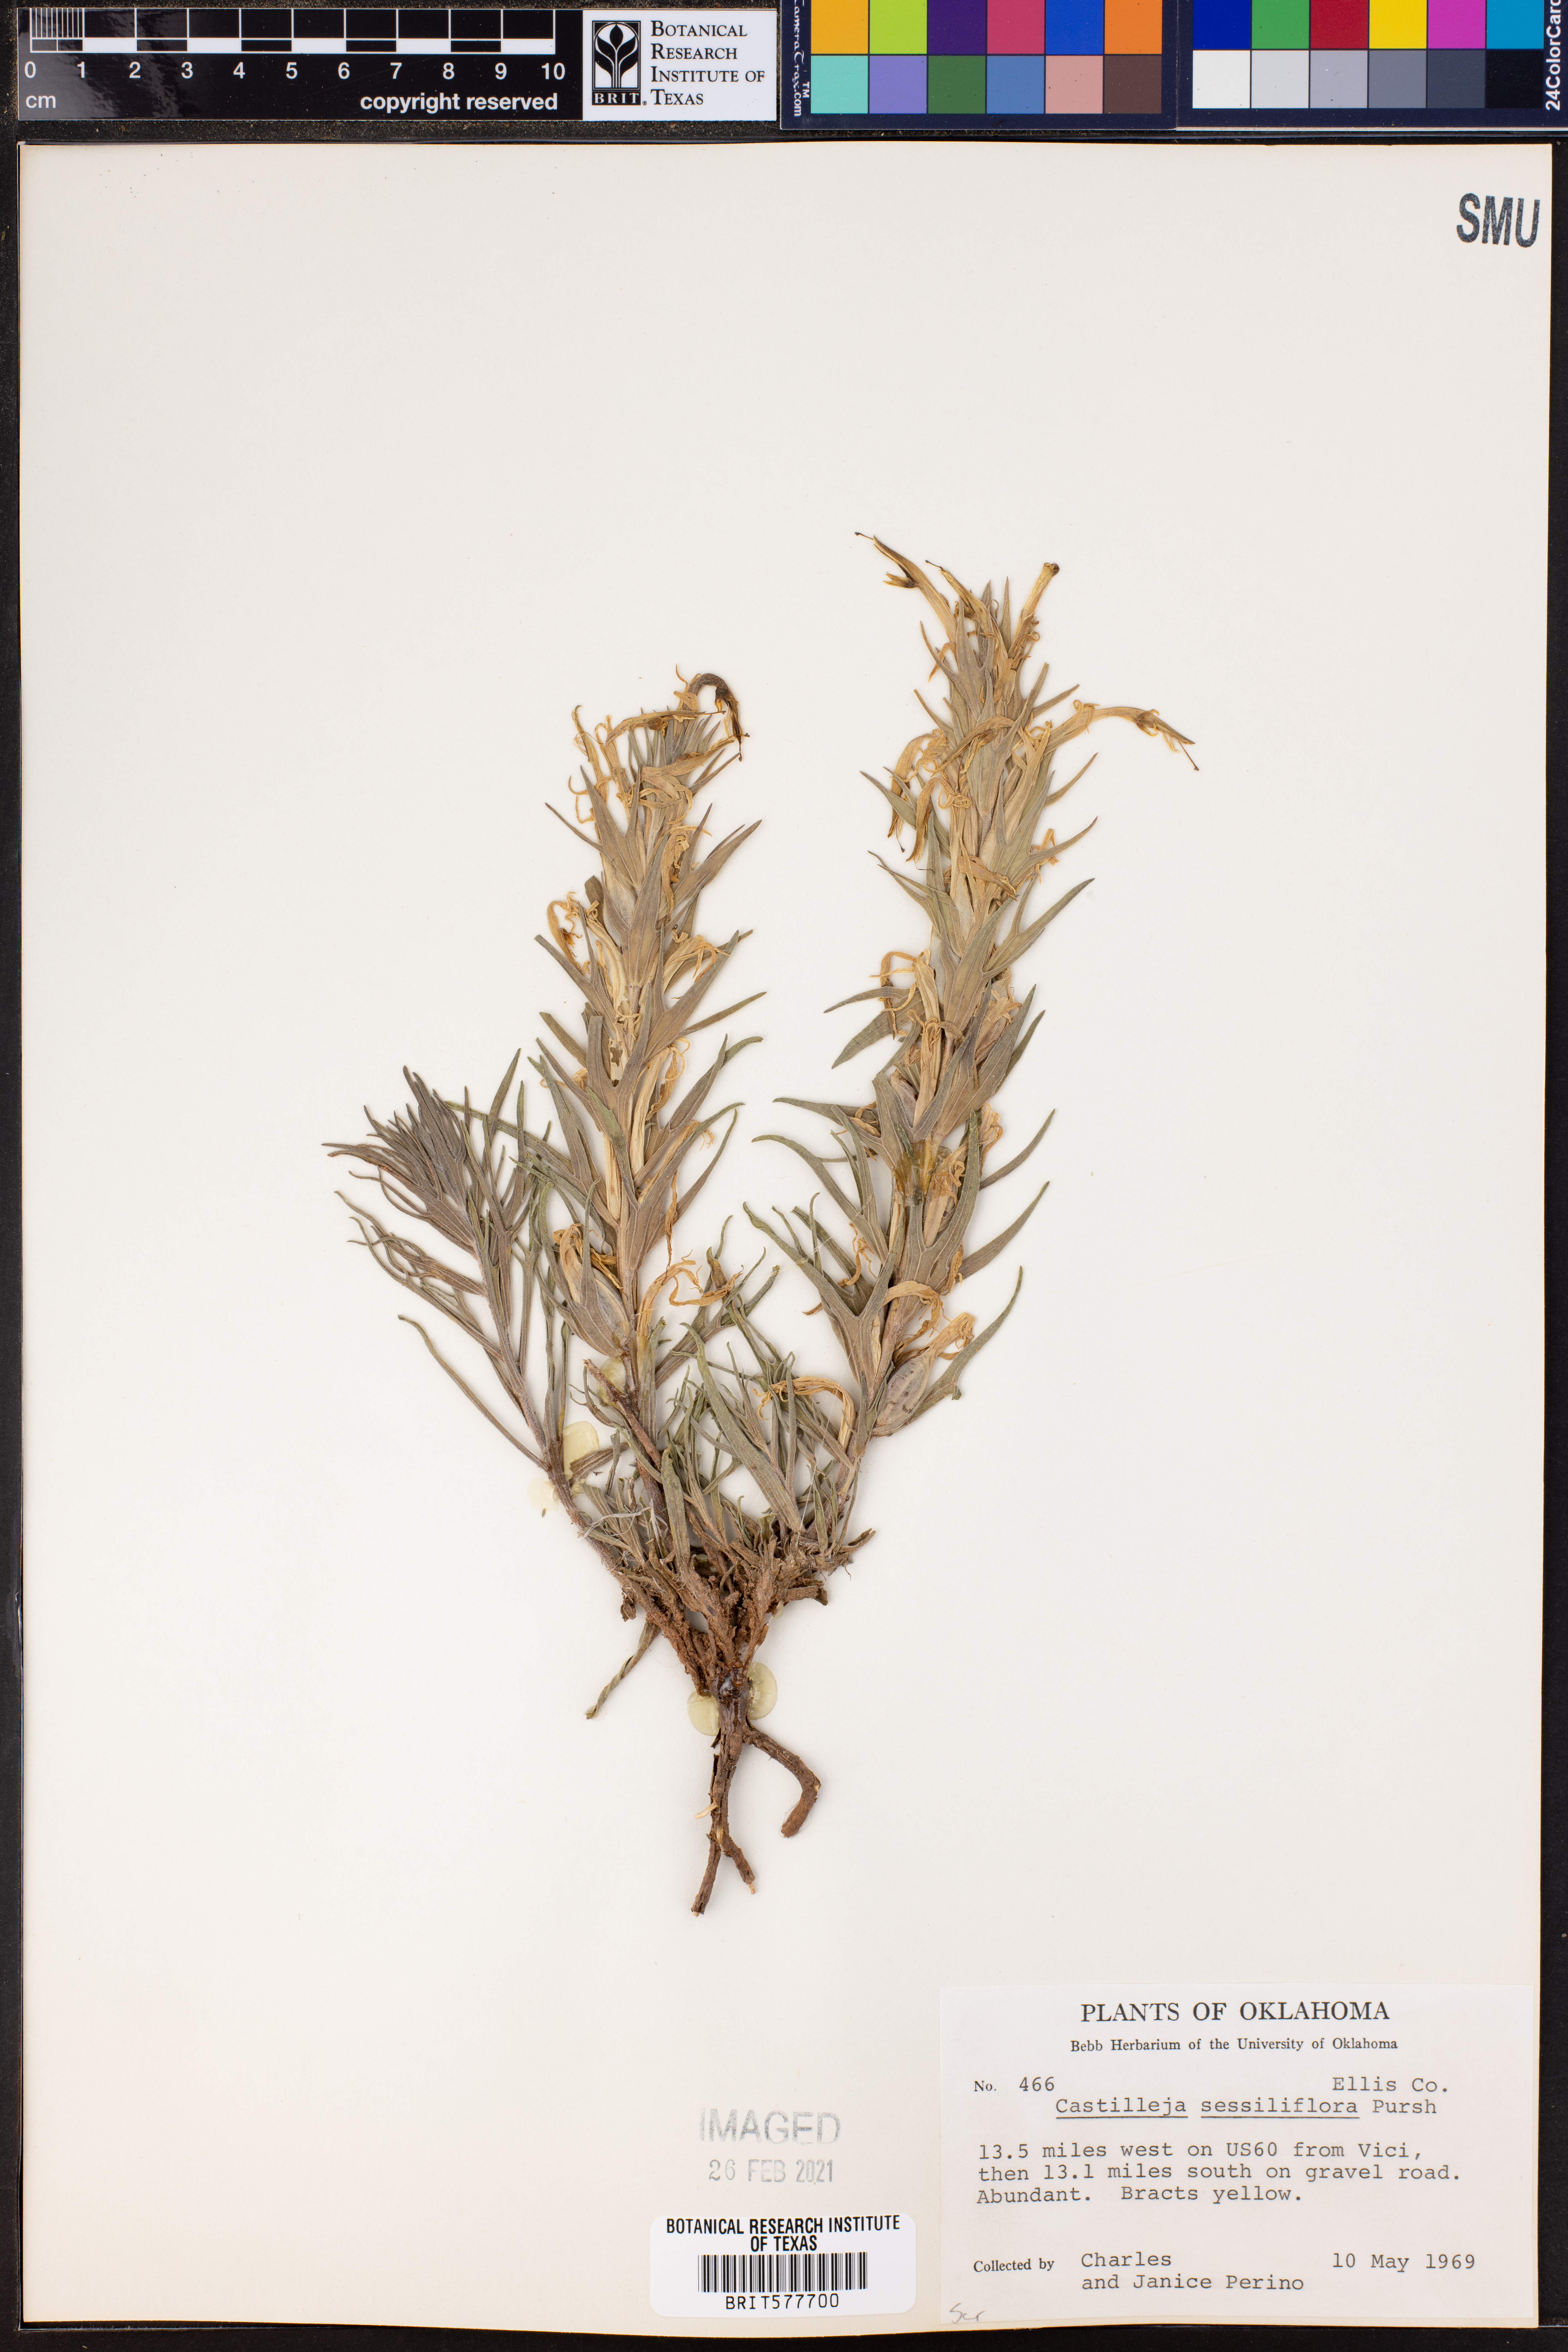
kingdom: Plantae
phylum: Tracheophyta
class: Magnoliopsida
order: Lamiales
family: Orobanchaceae
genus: Castilleja
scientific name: Castilleja sessiliflora
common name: Downy paintbrush
